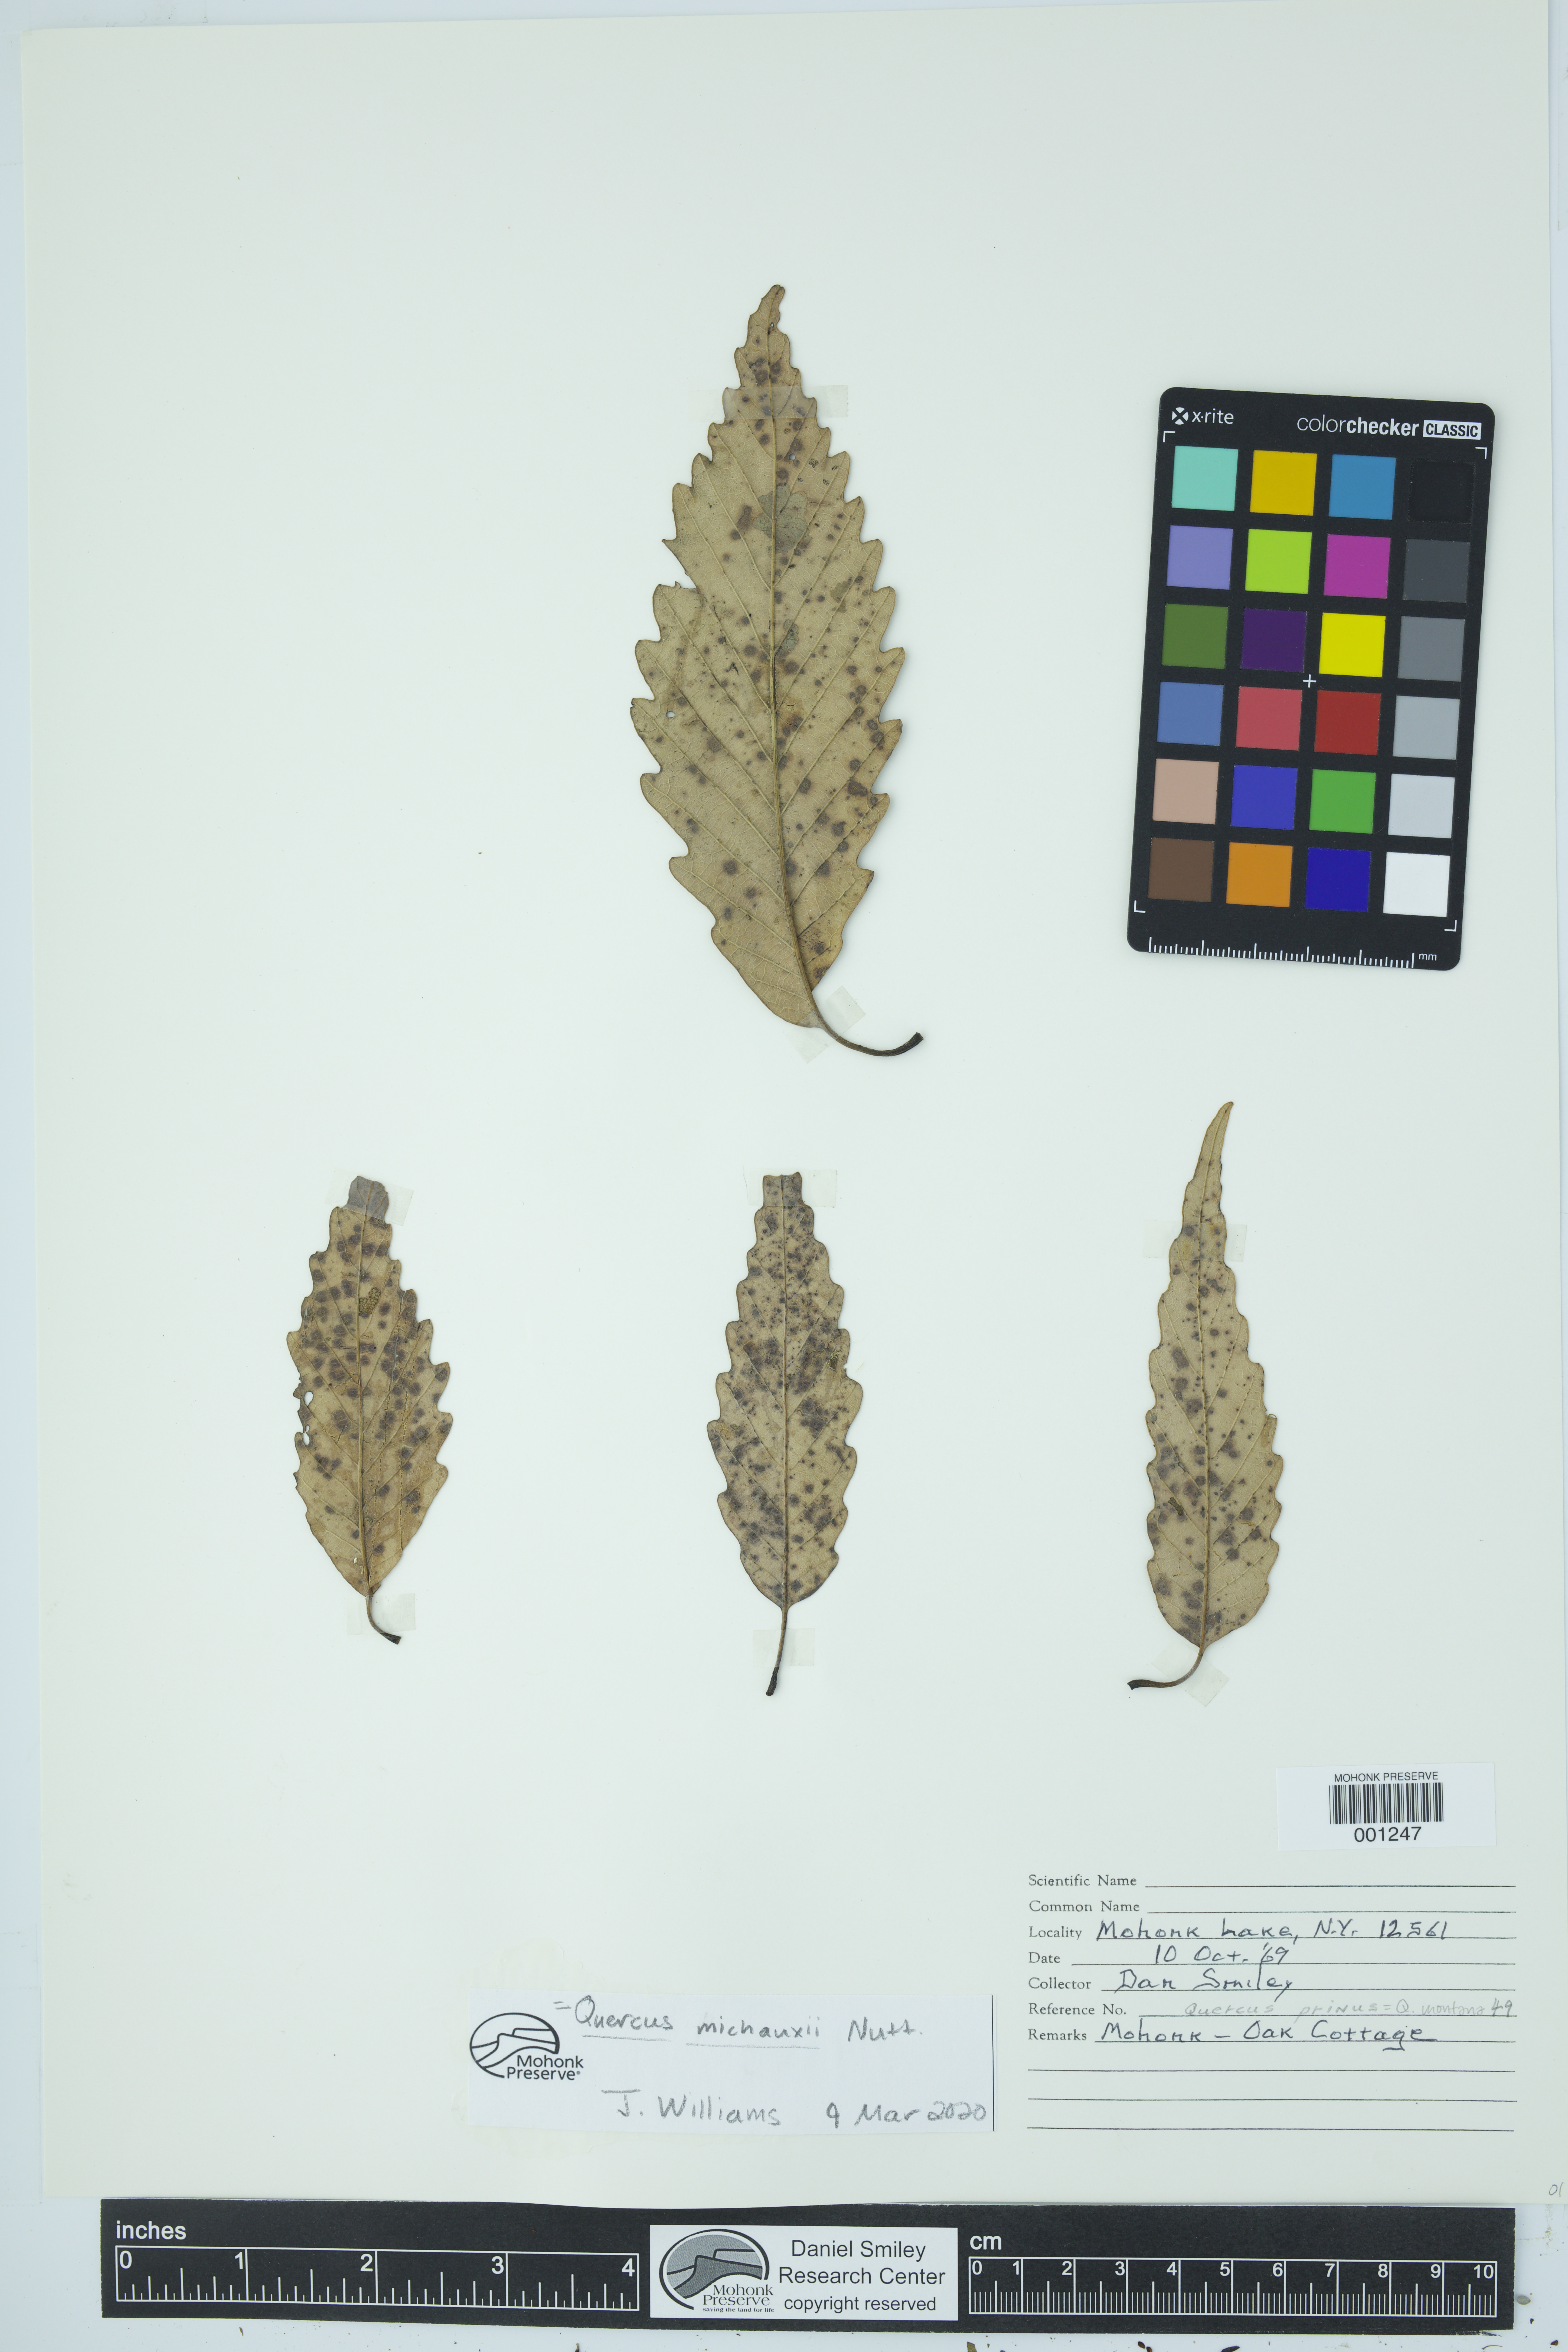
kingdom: Plantae
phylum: Tracheophyta
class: Magnoliopsida
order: Fagales
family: Fagaceae
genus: Quercus
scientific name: Quercus michauxii
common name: Swamp chestnut oak
